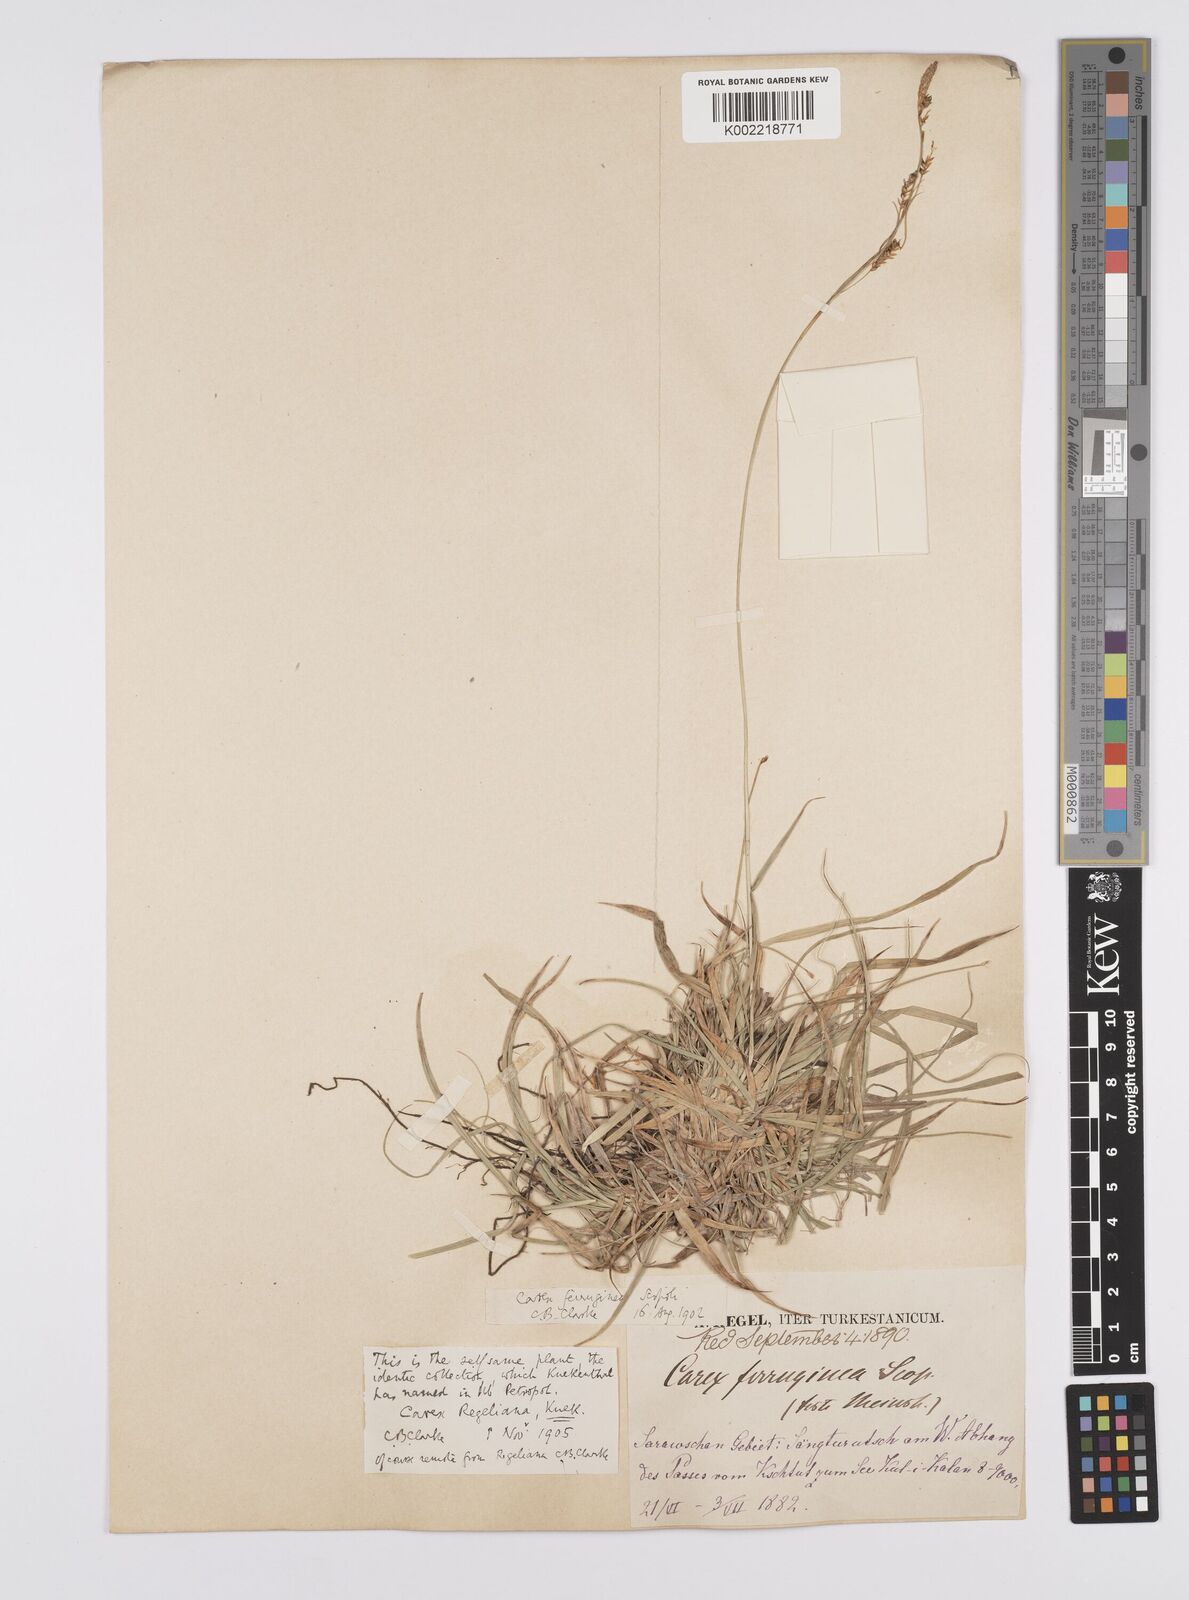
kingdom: Plantae
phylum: Tracheophyta
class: Liliopsida
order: Poales
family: Cyperaceae
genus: Carex
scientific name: Carex capillaris
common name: Hair sedge
